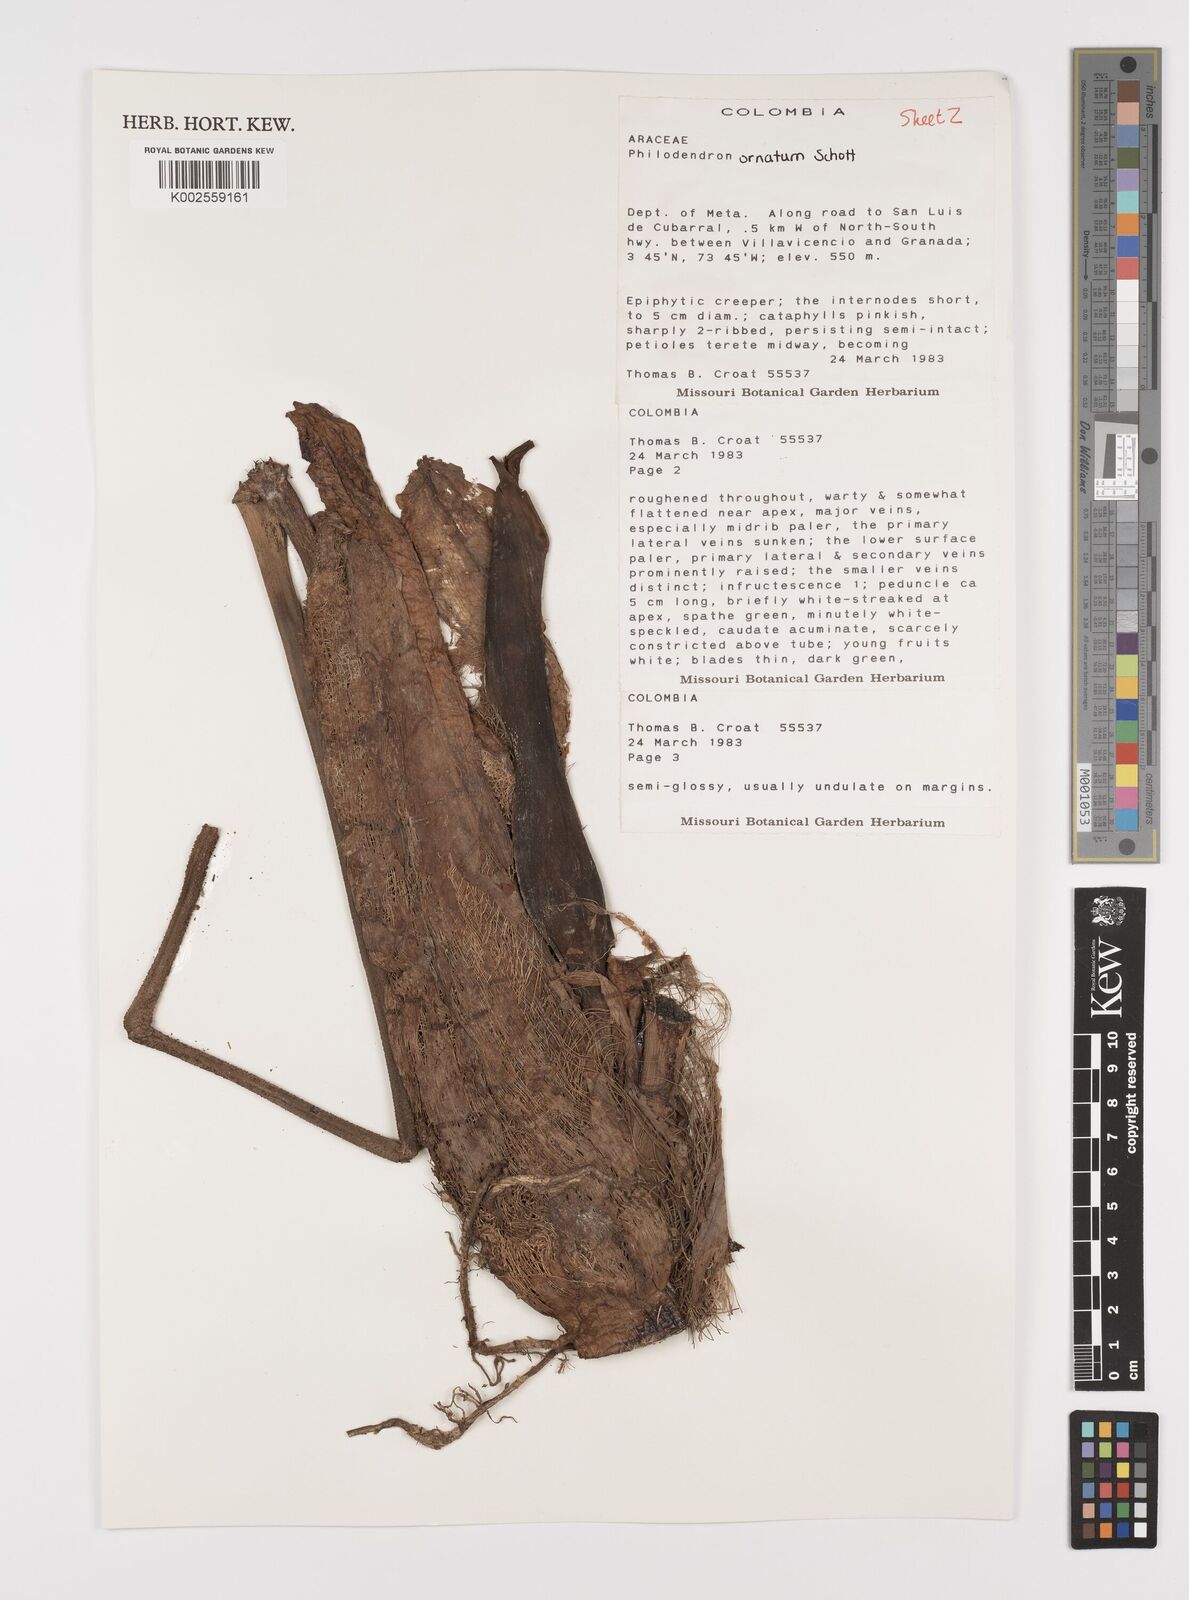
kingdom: Plantae
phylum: Tracheophyta
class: Liliopsida
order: Alismatales
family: Araceae
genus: Philodendron
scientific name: Philodendron ornatum
